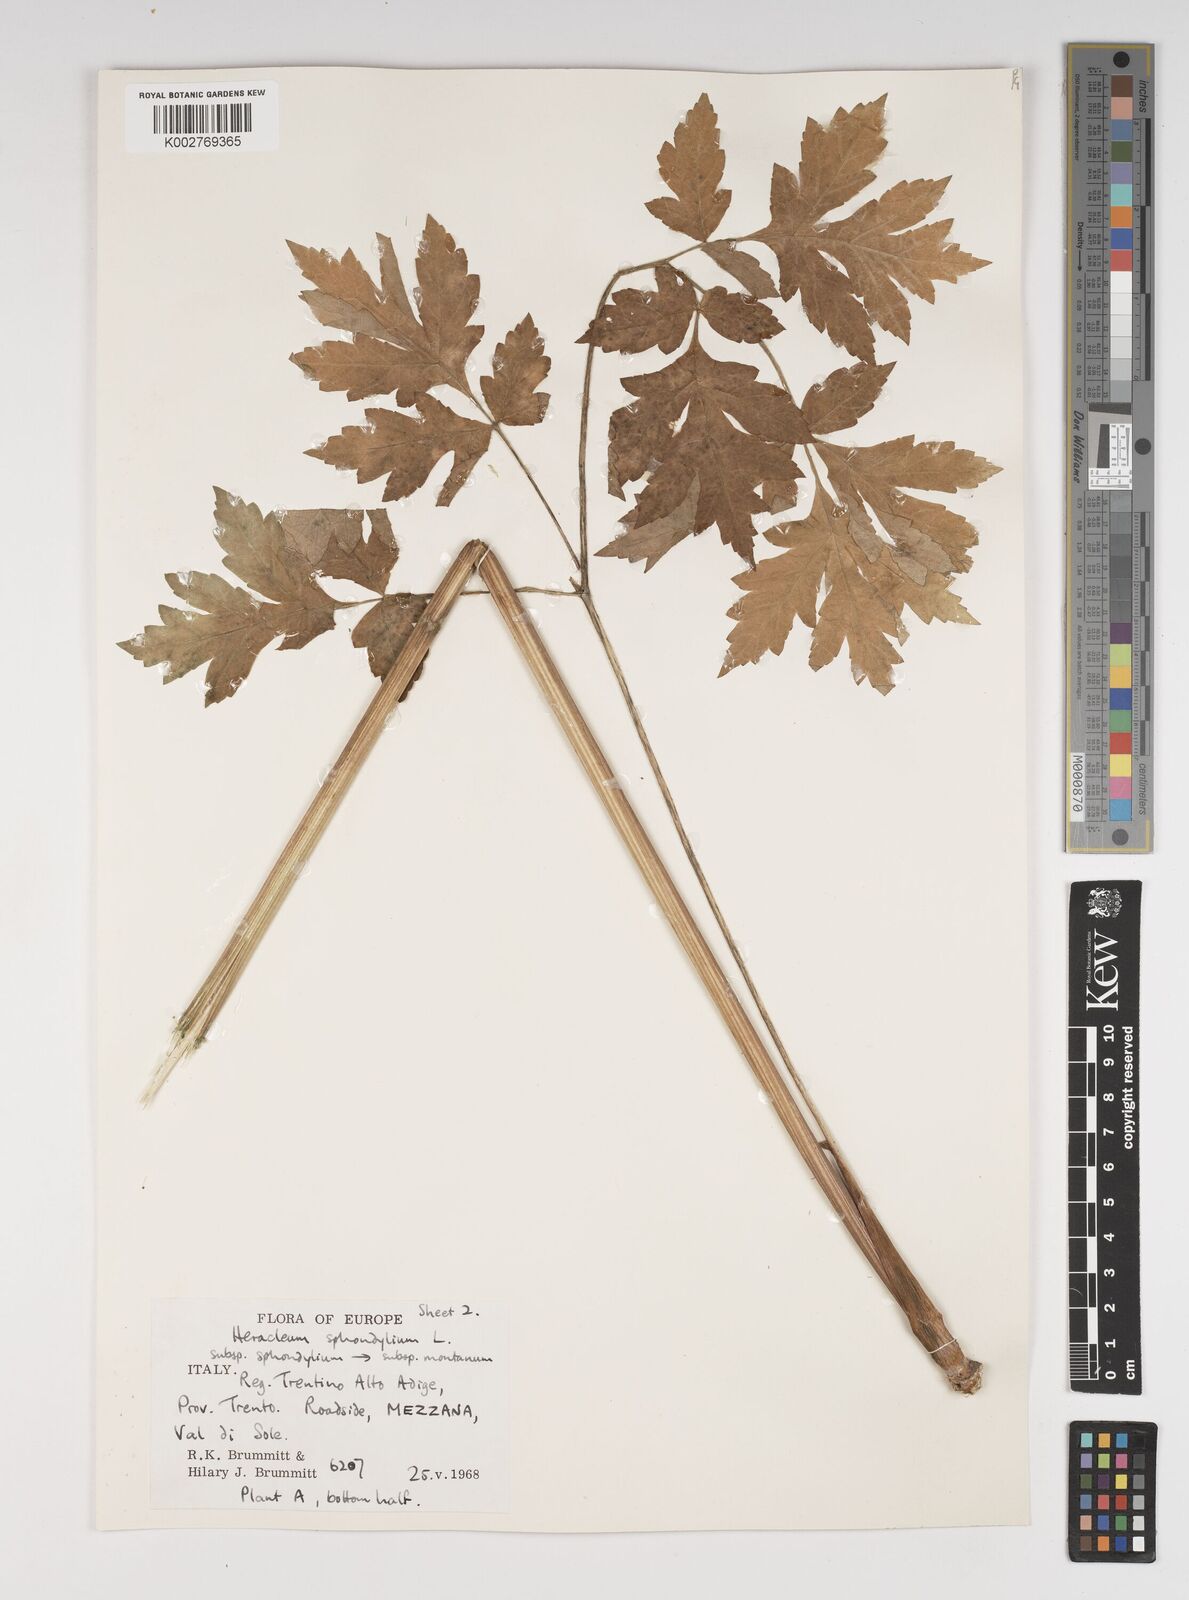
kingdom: Plantae
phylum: Tracheophyta
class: Magnoliopsida
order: Apiales
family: Apiaceae
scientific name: Apiaceae
